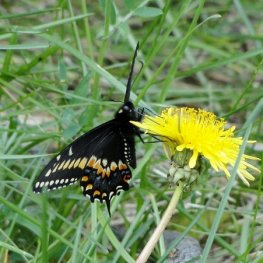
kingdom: Animalia
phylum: Arthropoda
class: Insecta
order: Lepidoptera
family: Papilionidae
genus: Papilio
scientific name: Papilio polyxenes
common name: Black Swallowtail
